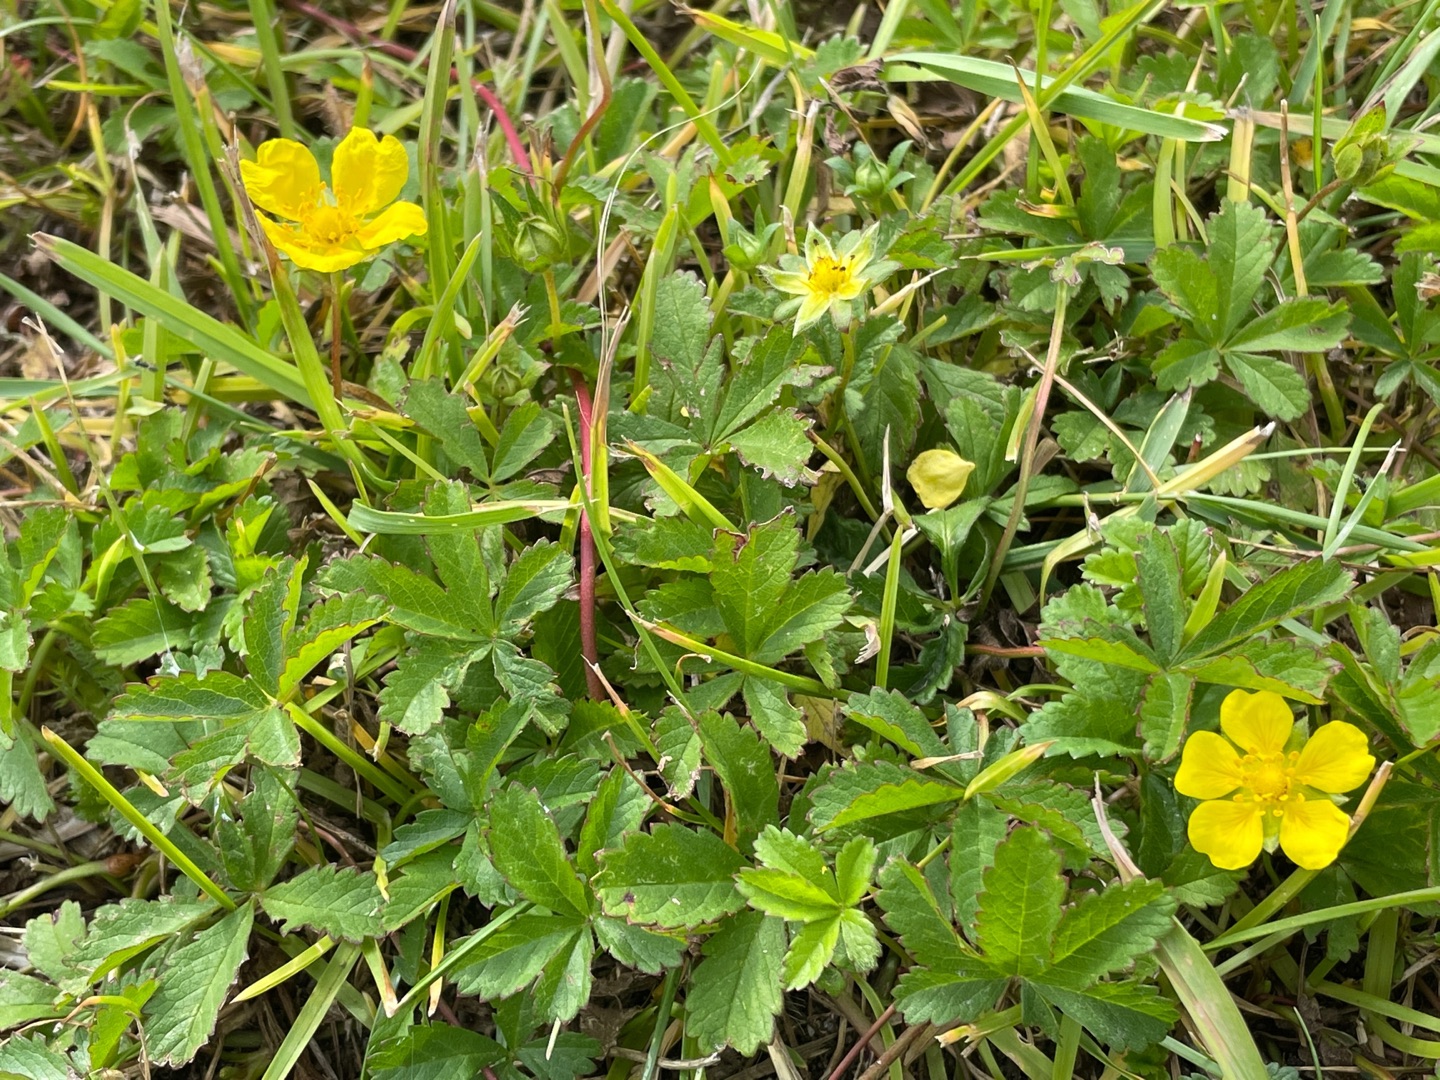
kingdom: Plantae
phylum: Tracheophyta
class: Magnoliopsida
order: Rosales
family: Rosaceae
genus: Potentilla
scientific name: Potentilla reptans
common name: Krybende potentil
